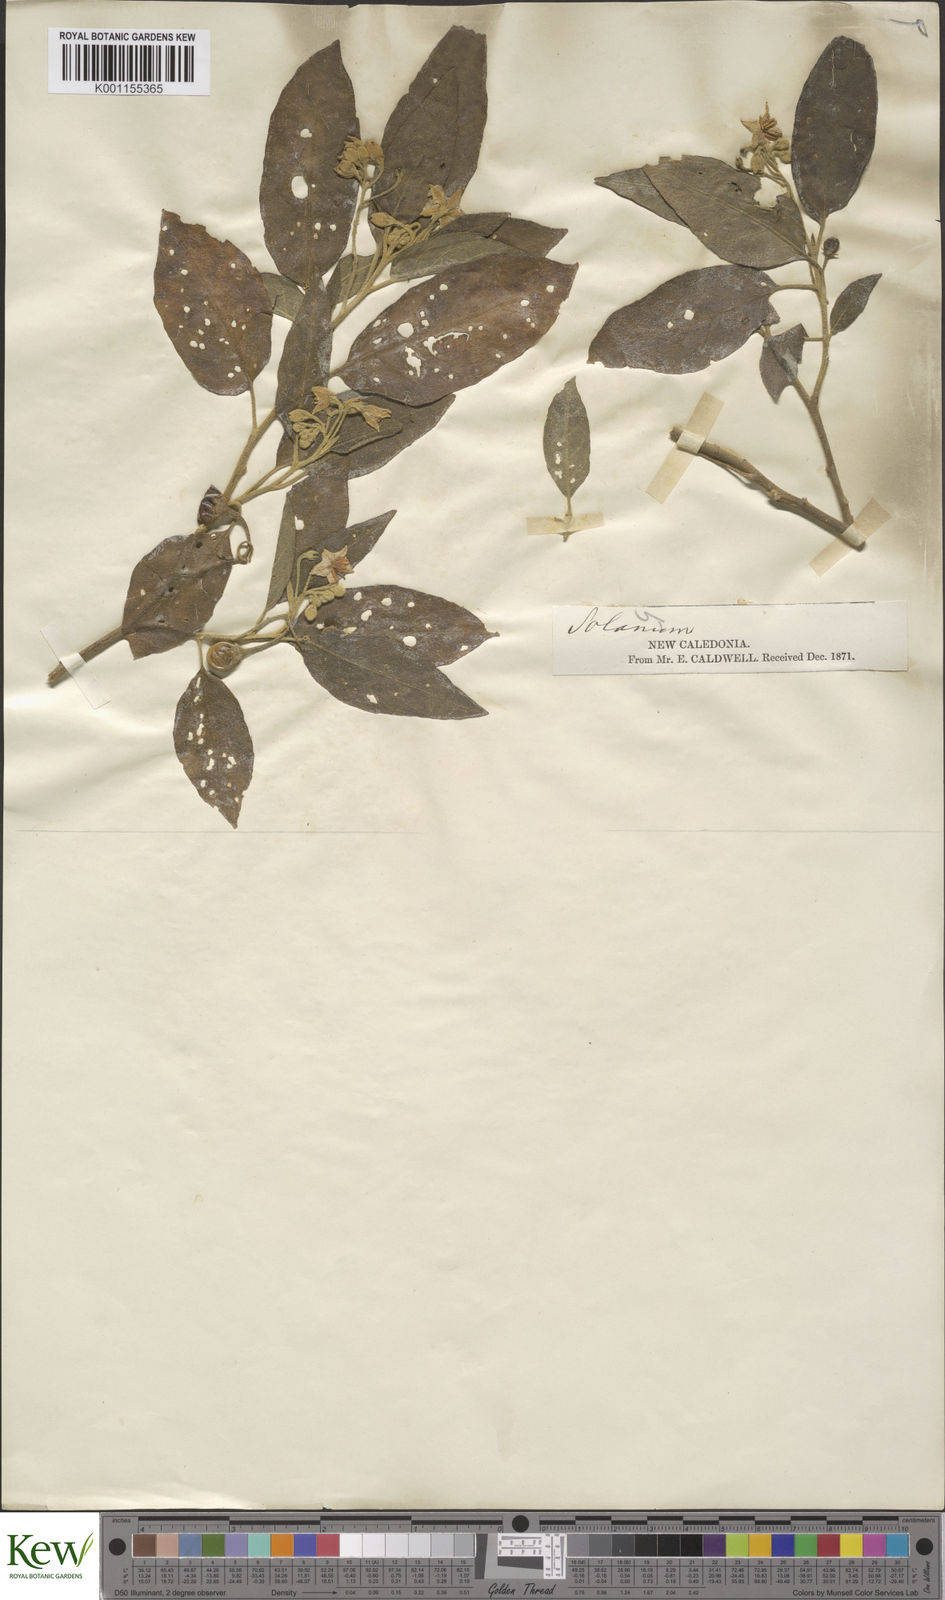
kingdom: Plantae
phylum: Tracheophyta
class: Magnoliopsida
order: Solanales
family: Solanaceae
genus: Solanum
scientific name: Solanum austrocaledonicum
